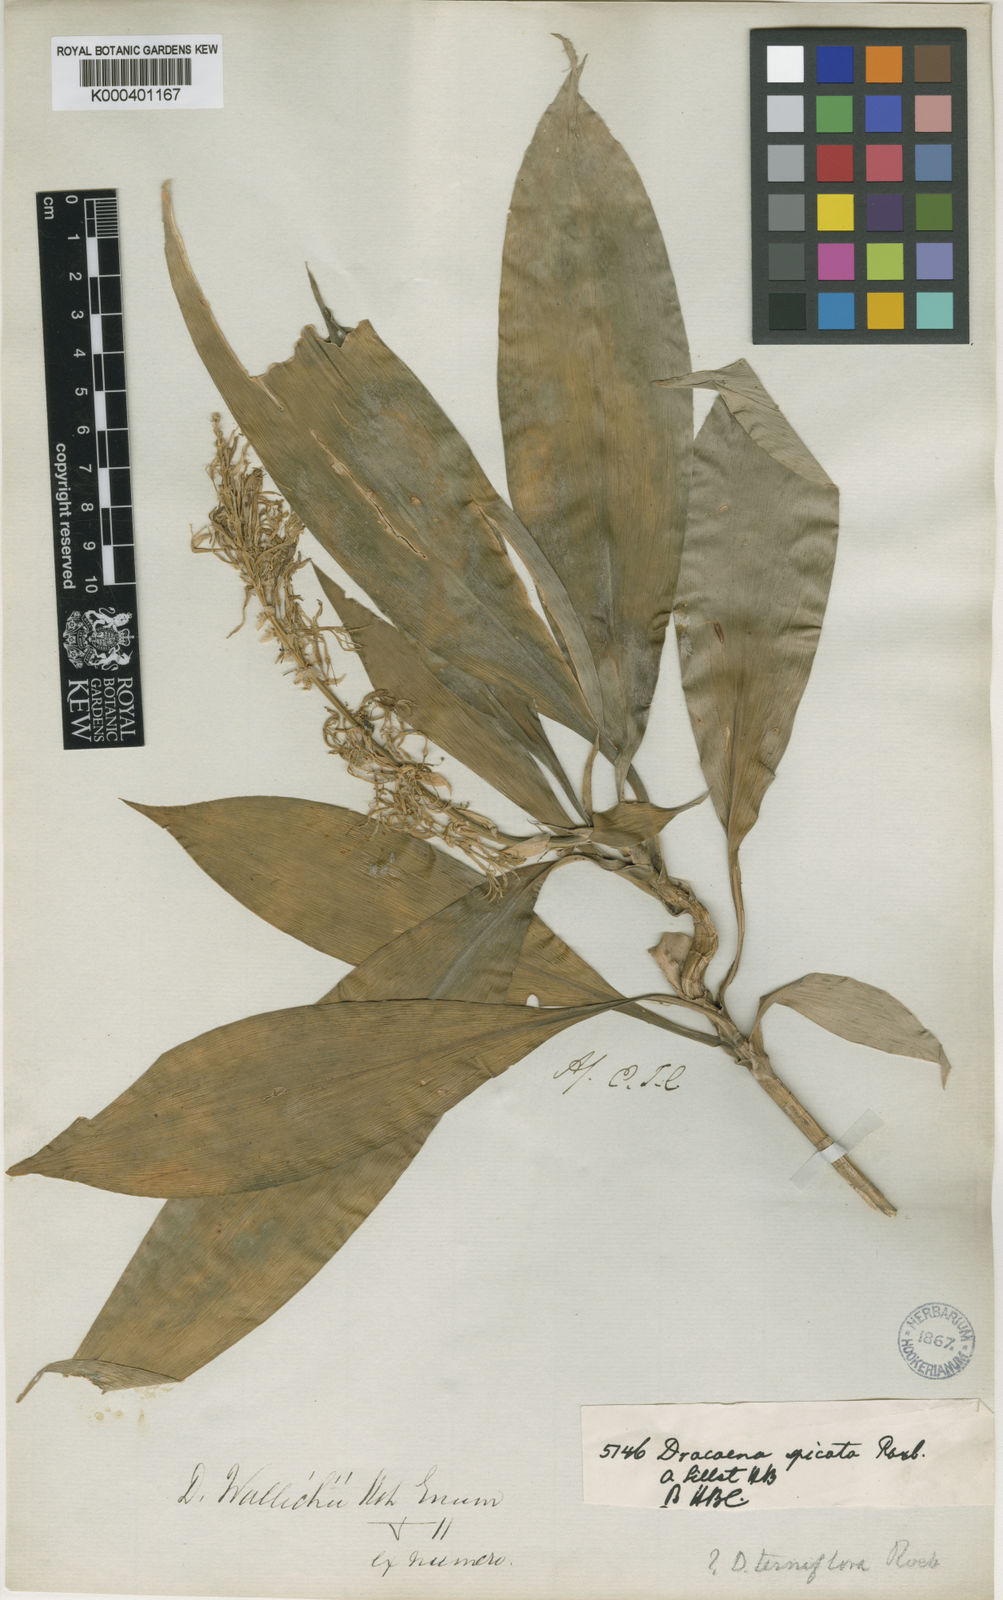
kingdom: Plantae
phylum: Tracheophyta
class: Liliopsida
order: Asparagales
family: Asparagaceae
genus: Dracaena
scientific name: Dracaena spicata
